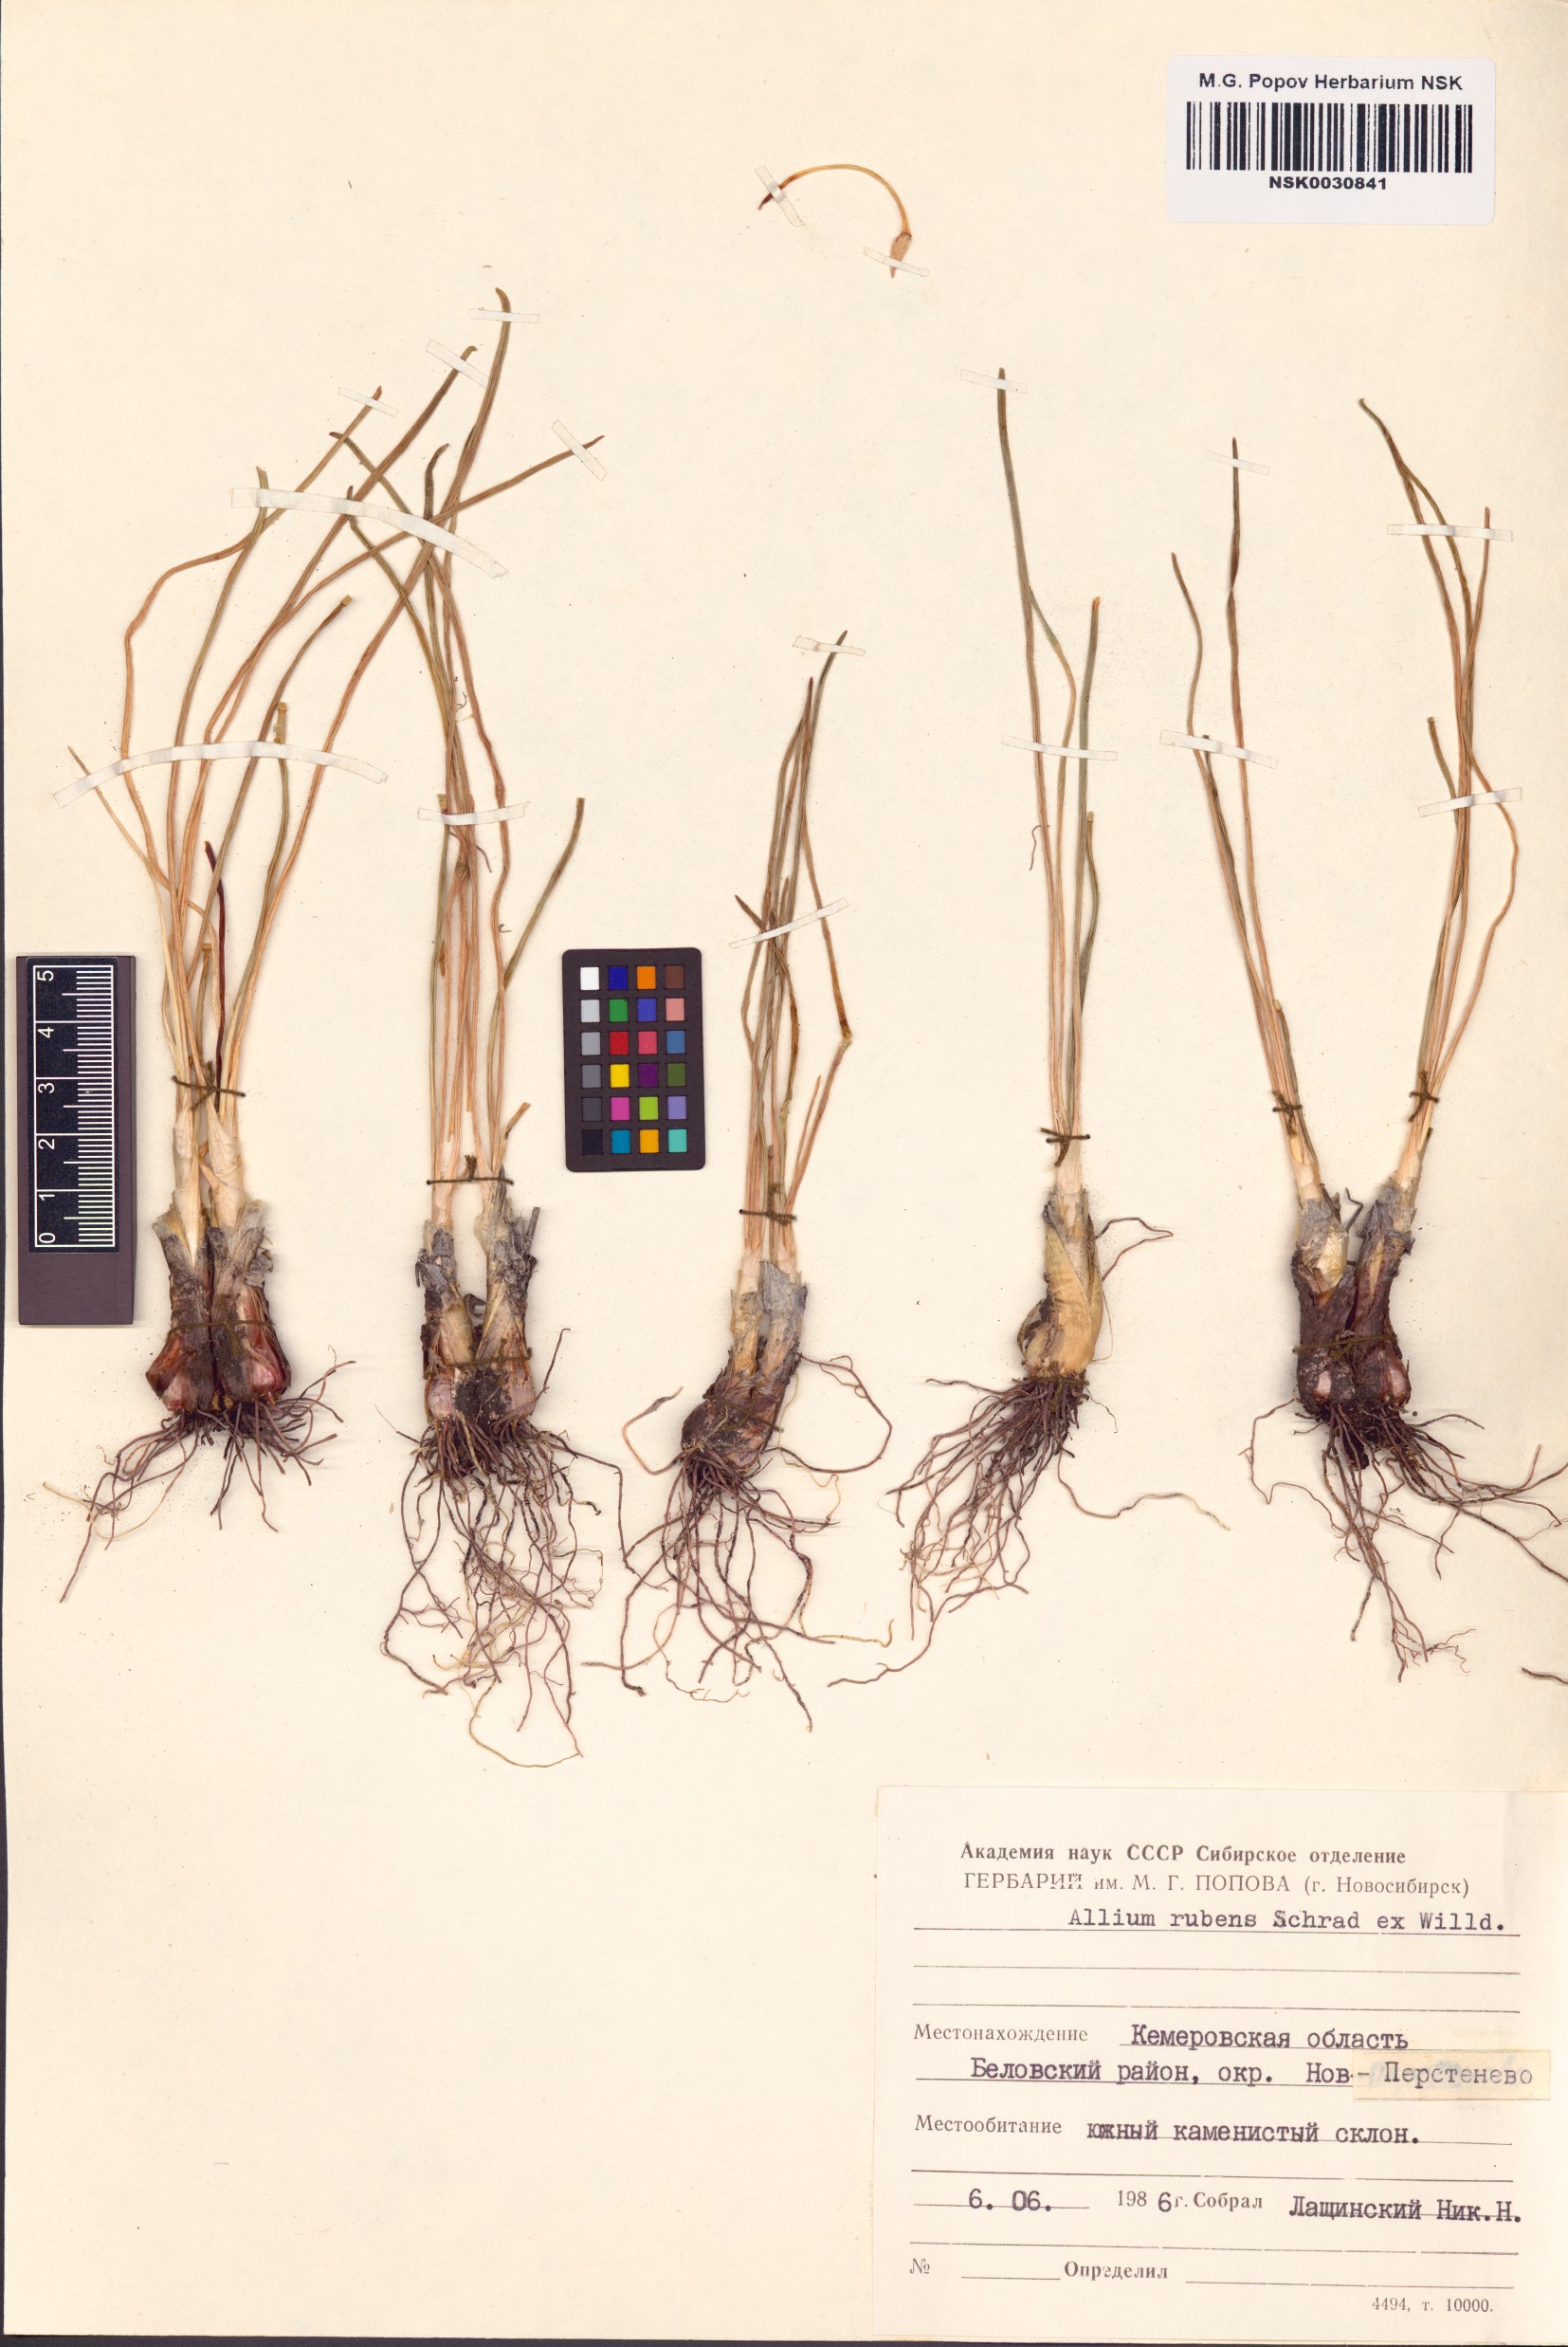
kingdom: Plantae
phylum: Tracheophyta
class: Liliopsida
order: Asparagales
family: Amaryllidaceae
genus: Allium
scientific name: Allium rubens
